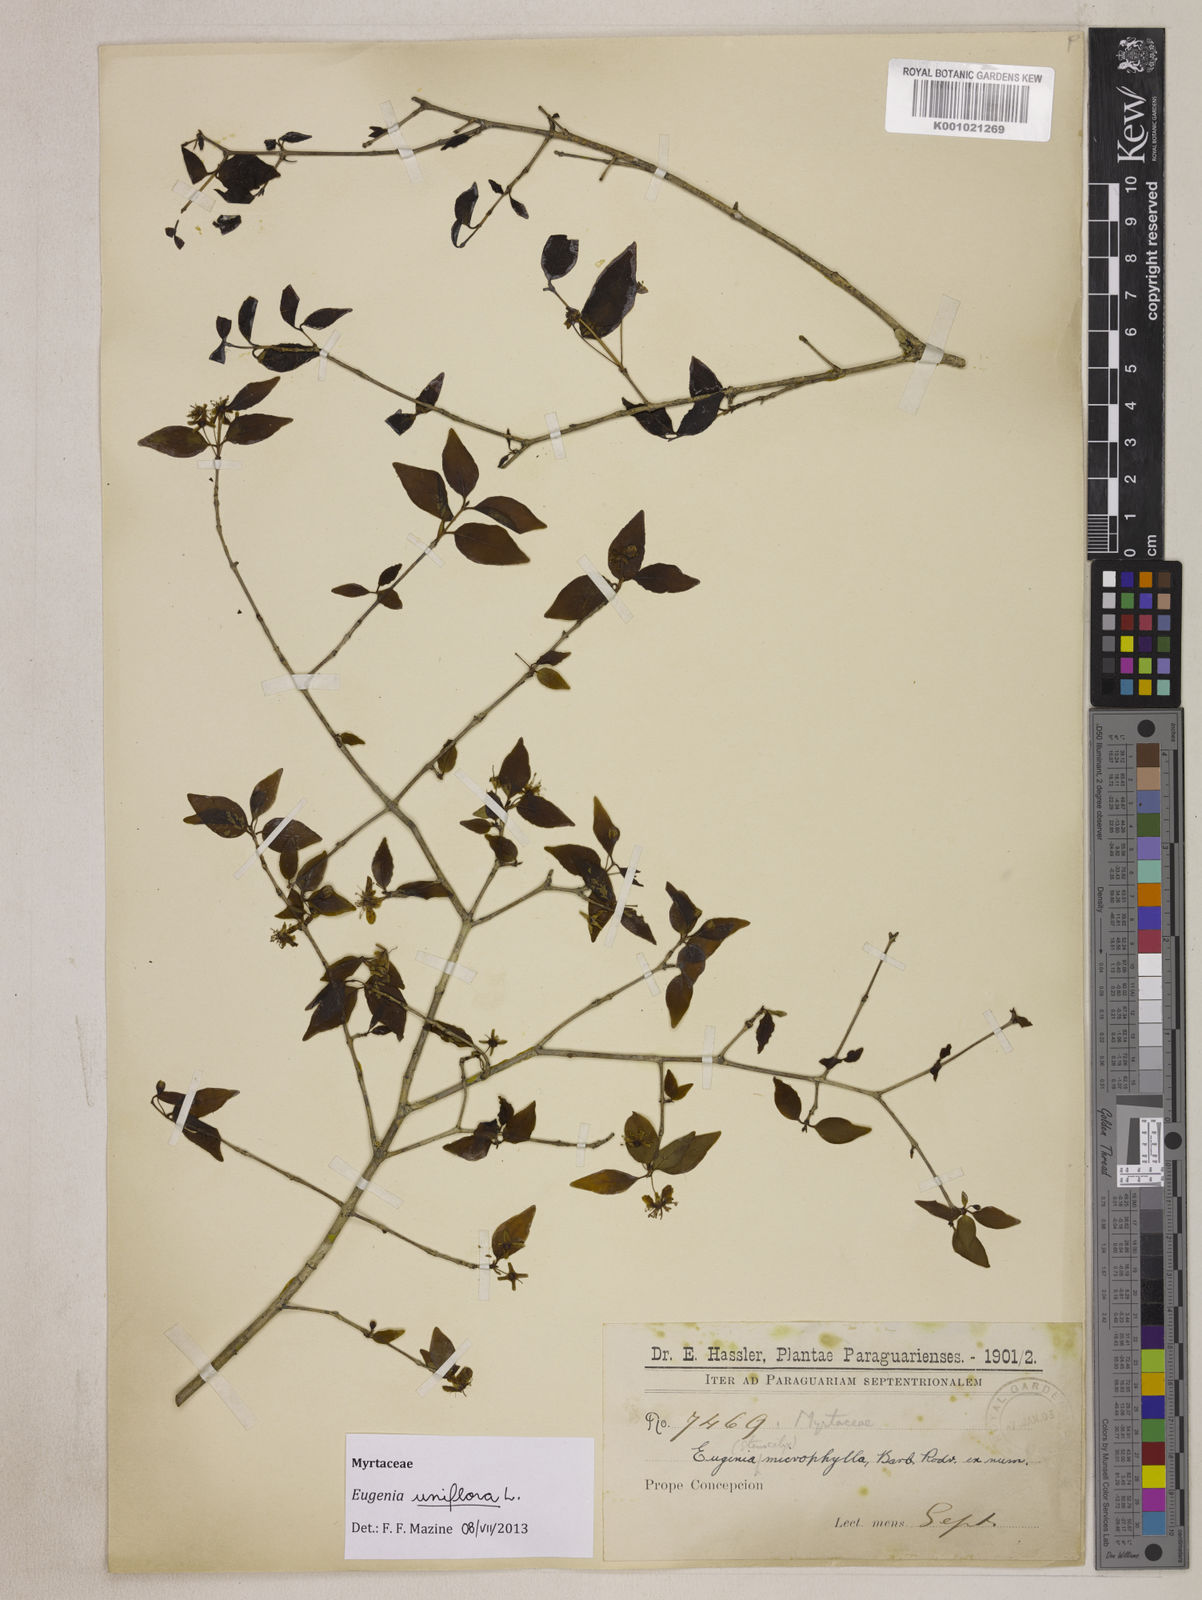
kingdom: Plantae
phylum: Tracheophyta
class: Magnoliopsida
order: Myrtales
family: Myrtaceae
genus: Eugenia
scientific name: Eugenia uniflora
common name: Surinam cherry
